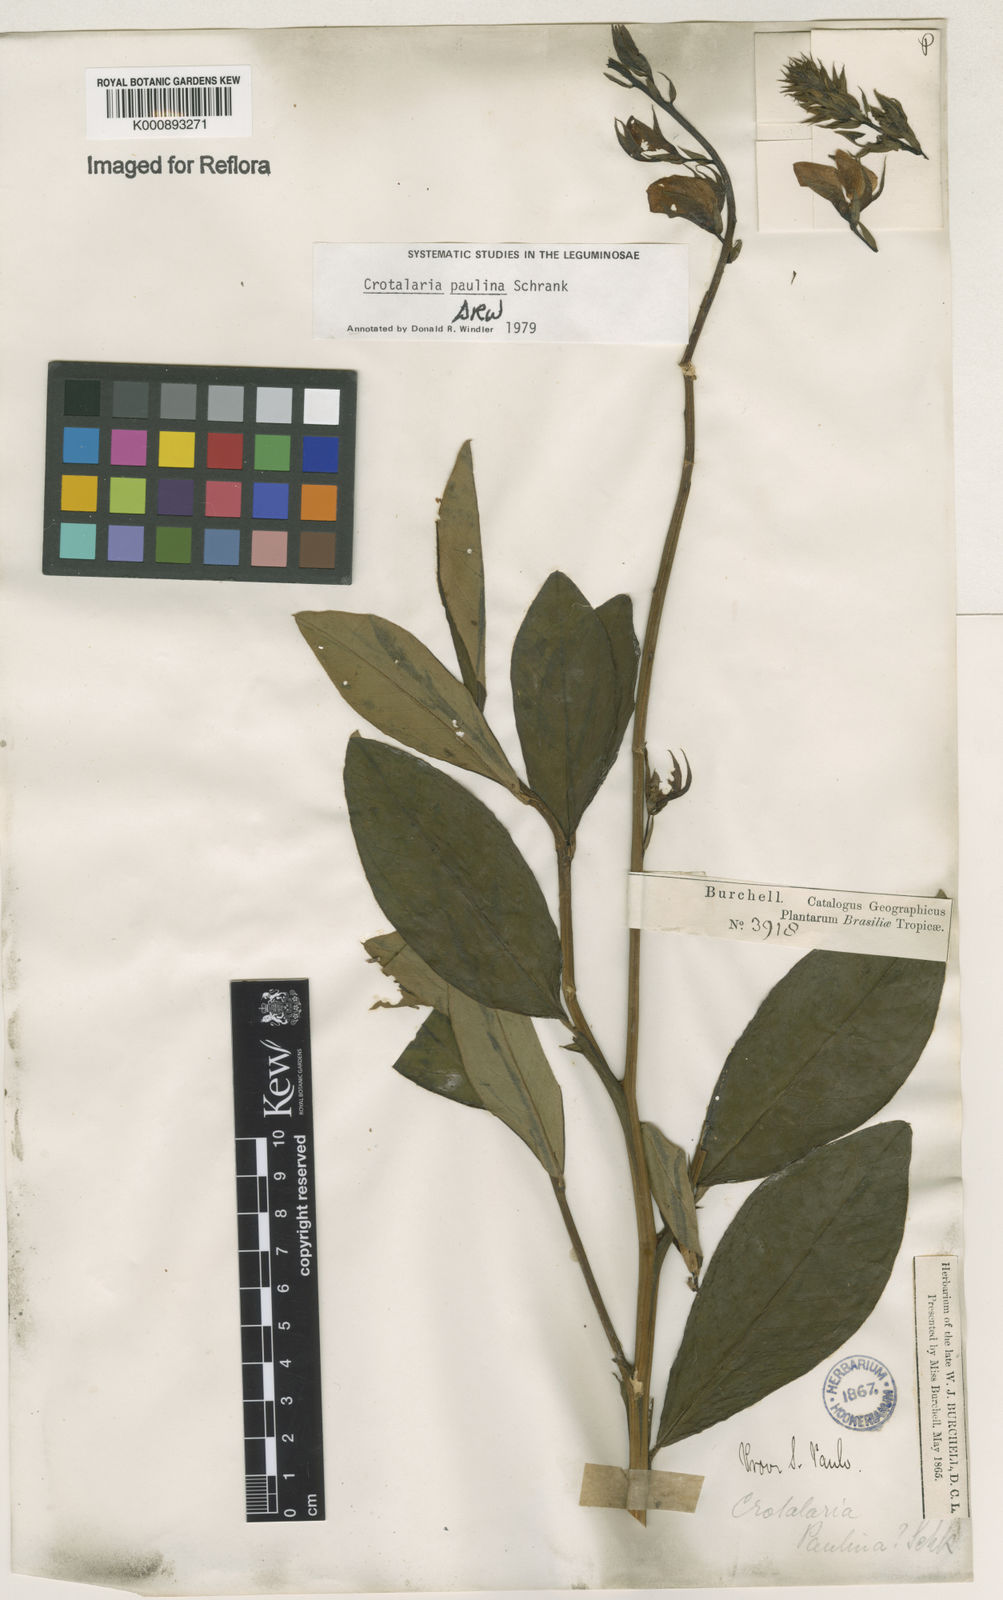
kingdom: Plantae
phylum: Tracheophyta
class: Magnoliopsida
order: Fabales
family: Fabaceae
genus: Crotalaria
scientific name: Crotalaria paulina
